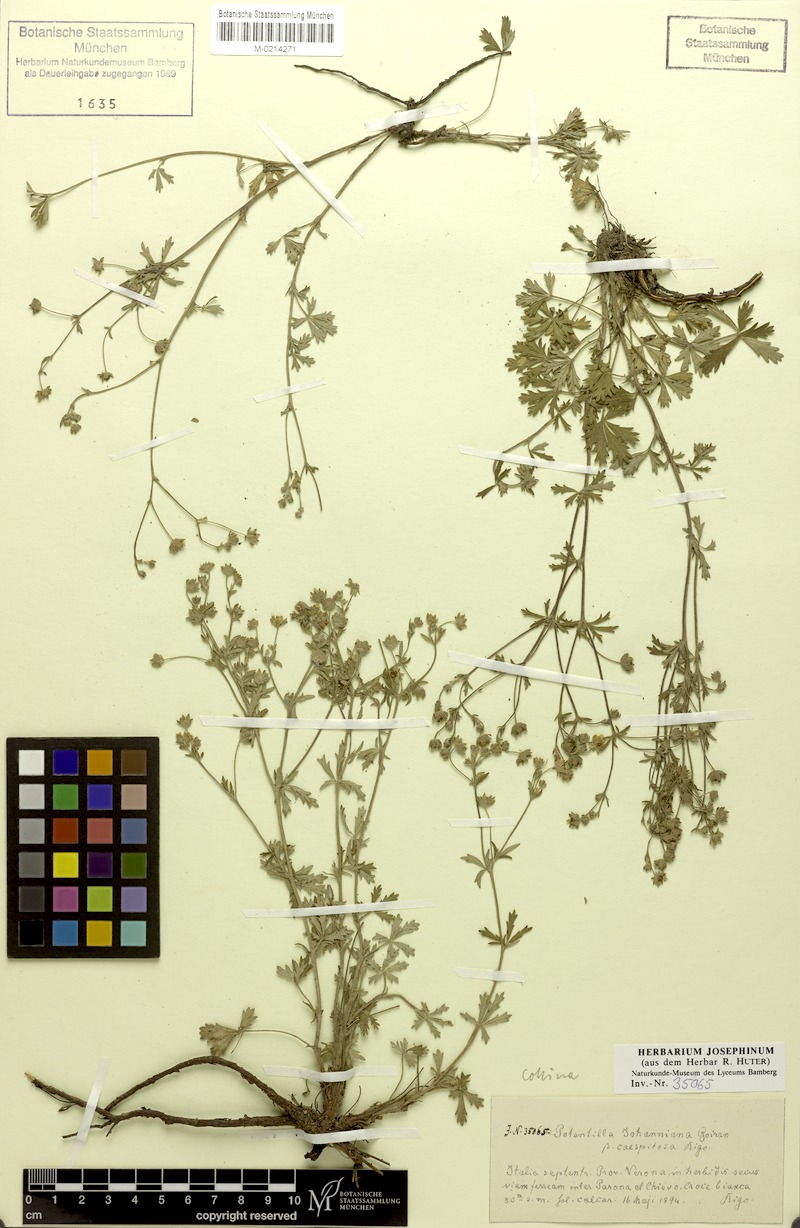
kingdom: Plantae
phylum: Tracheophyta
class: Magnoliopsida
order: Rosales
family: Rosaceae
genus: Potentilla
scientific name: Potentilla collina
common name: Palmleaf cinquefoil
